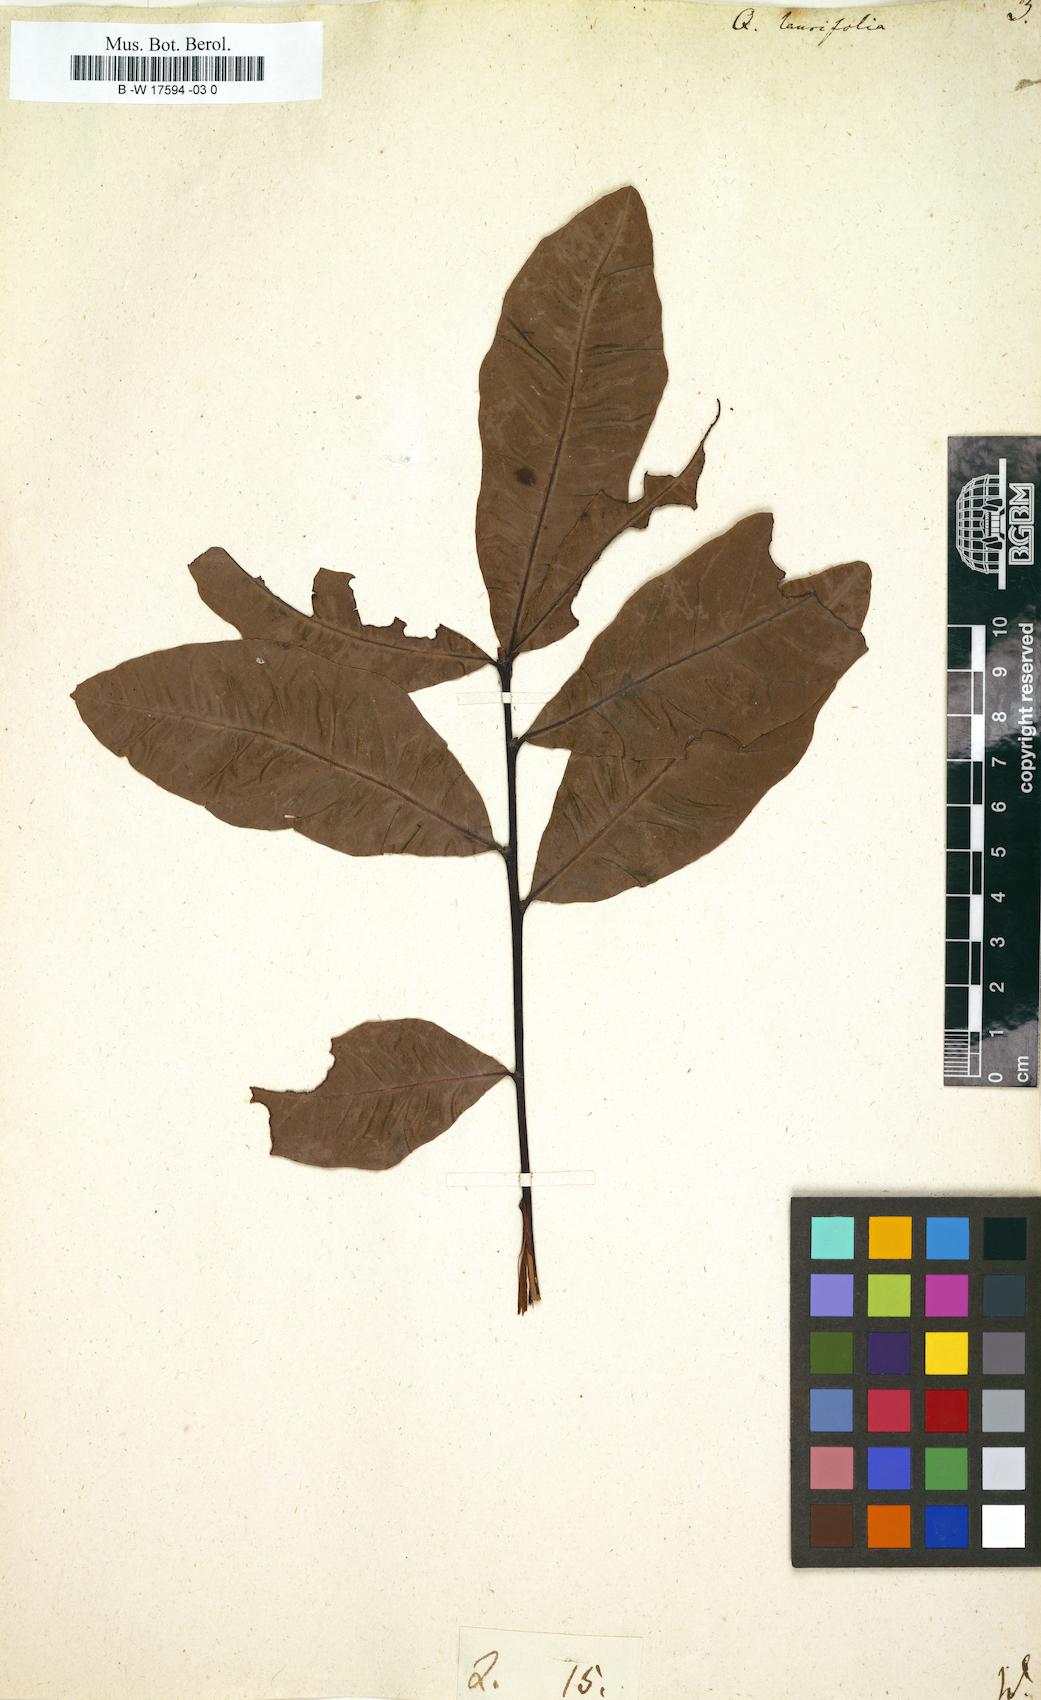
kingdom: Plantae
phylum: Tracheophyta
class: Magnoliopsida
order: Fagales
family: Fagaceae
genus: Quercus
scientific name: Quercus laurifolia
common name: Swamp laurel oak
